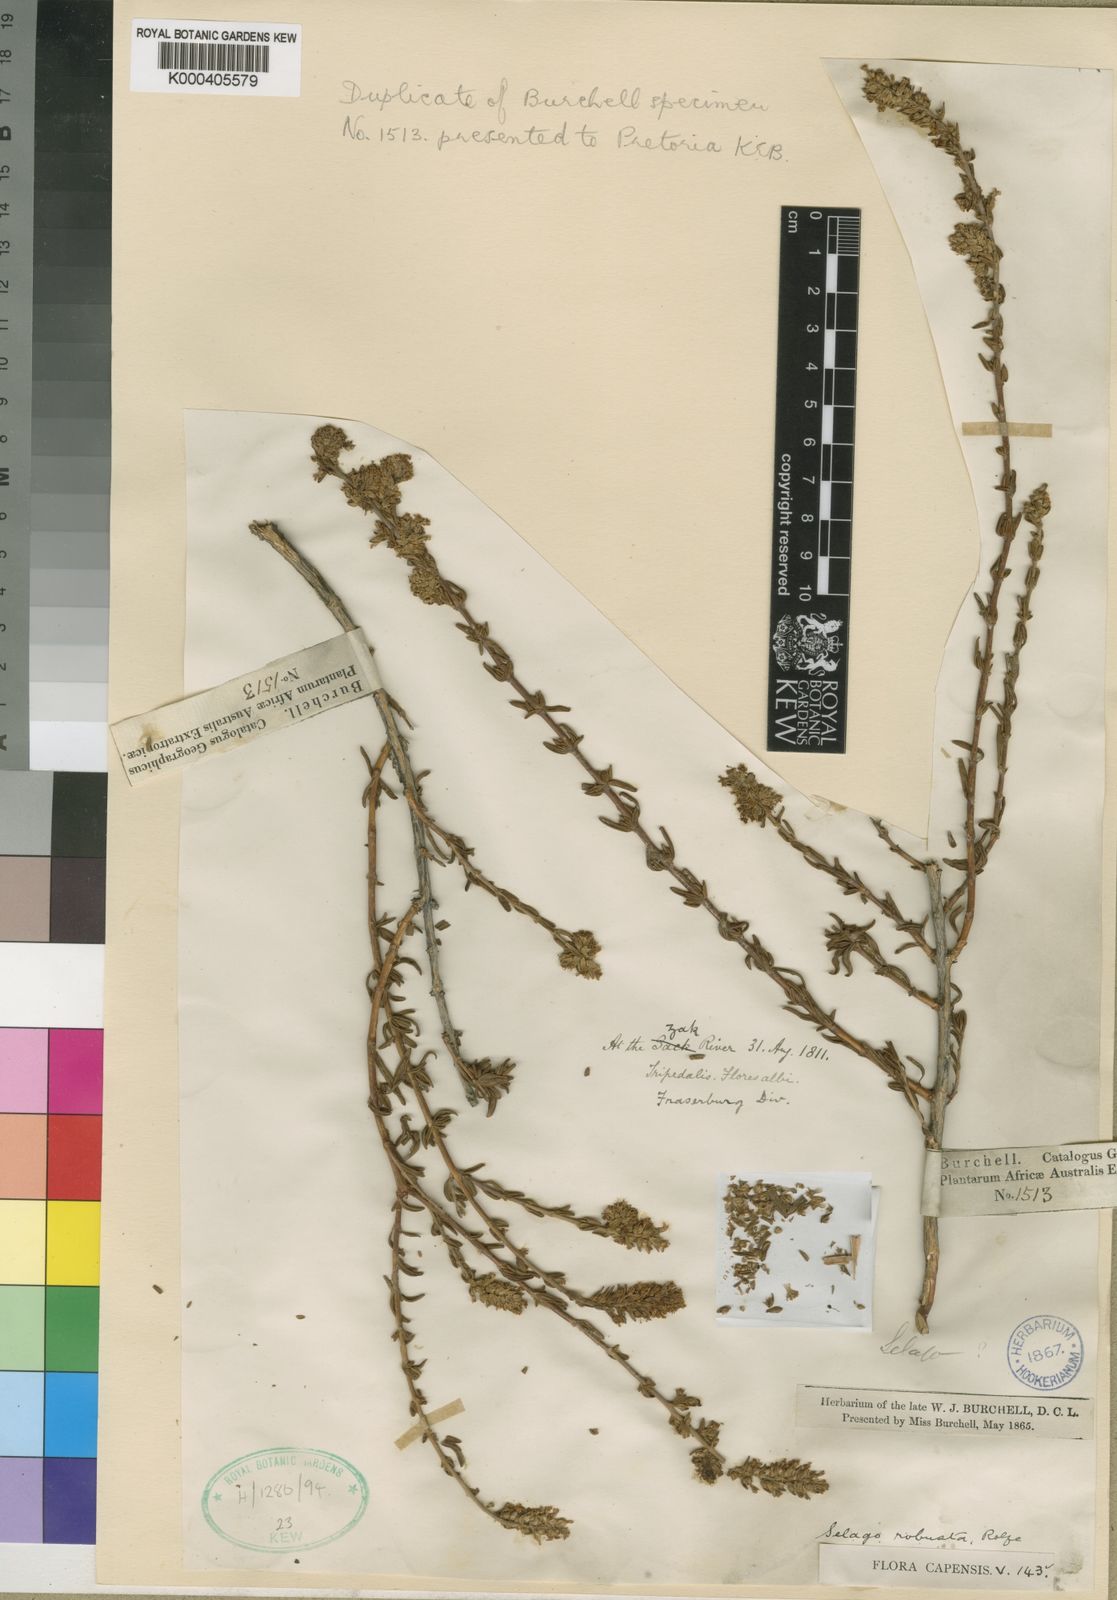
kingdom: Plantae
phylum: Tracheophyta
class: Magnoliopsida
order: Lamiales
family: Scrophulariaceae
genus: Selago
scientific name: Selago pinguicula
